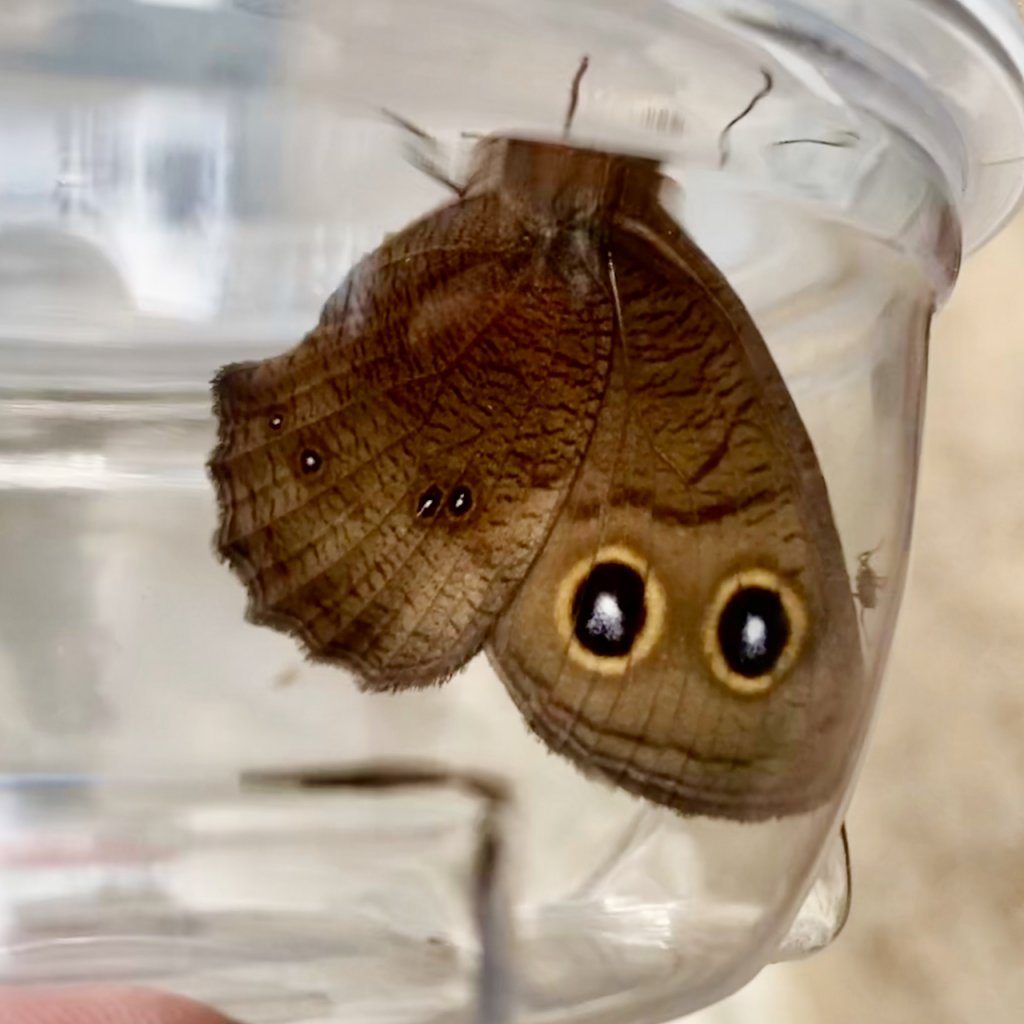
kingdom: Animalia
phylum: Arthropoda
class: Insecta
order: Lepidoptera
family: Nymphalidae
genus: Cercyonis
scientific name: Cercyonis pegala
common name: Common Wood-Nymph
